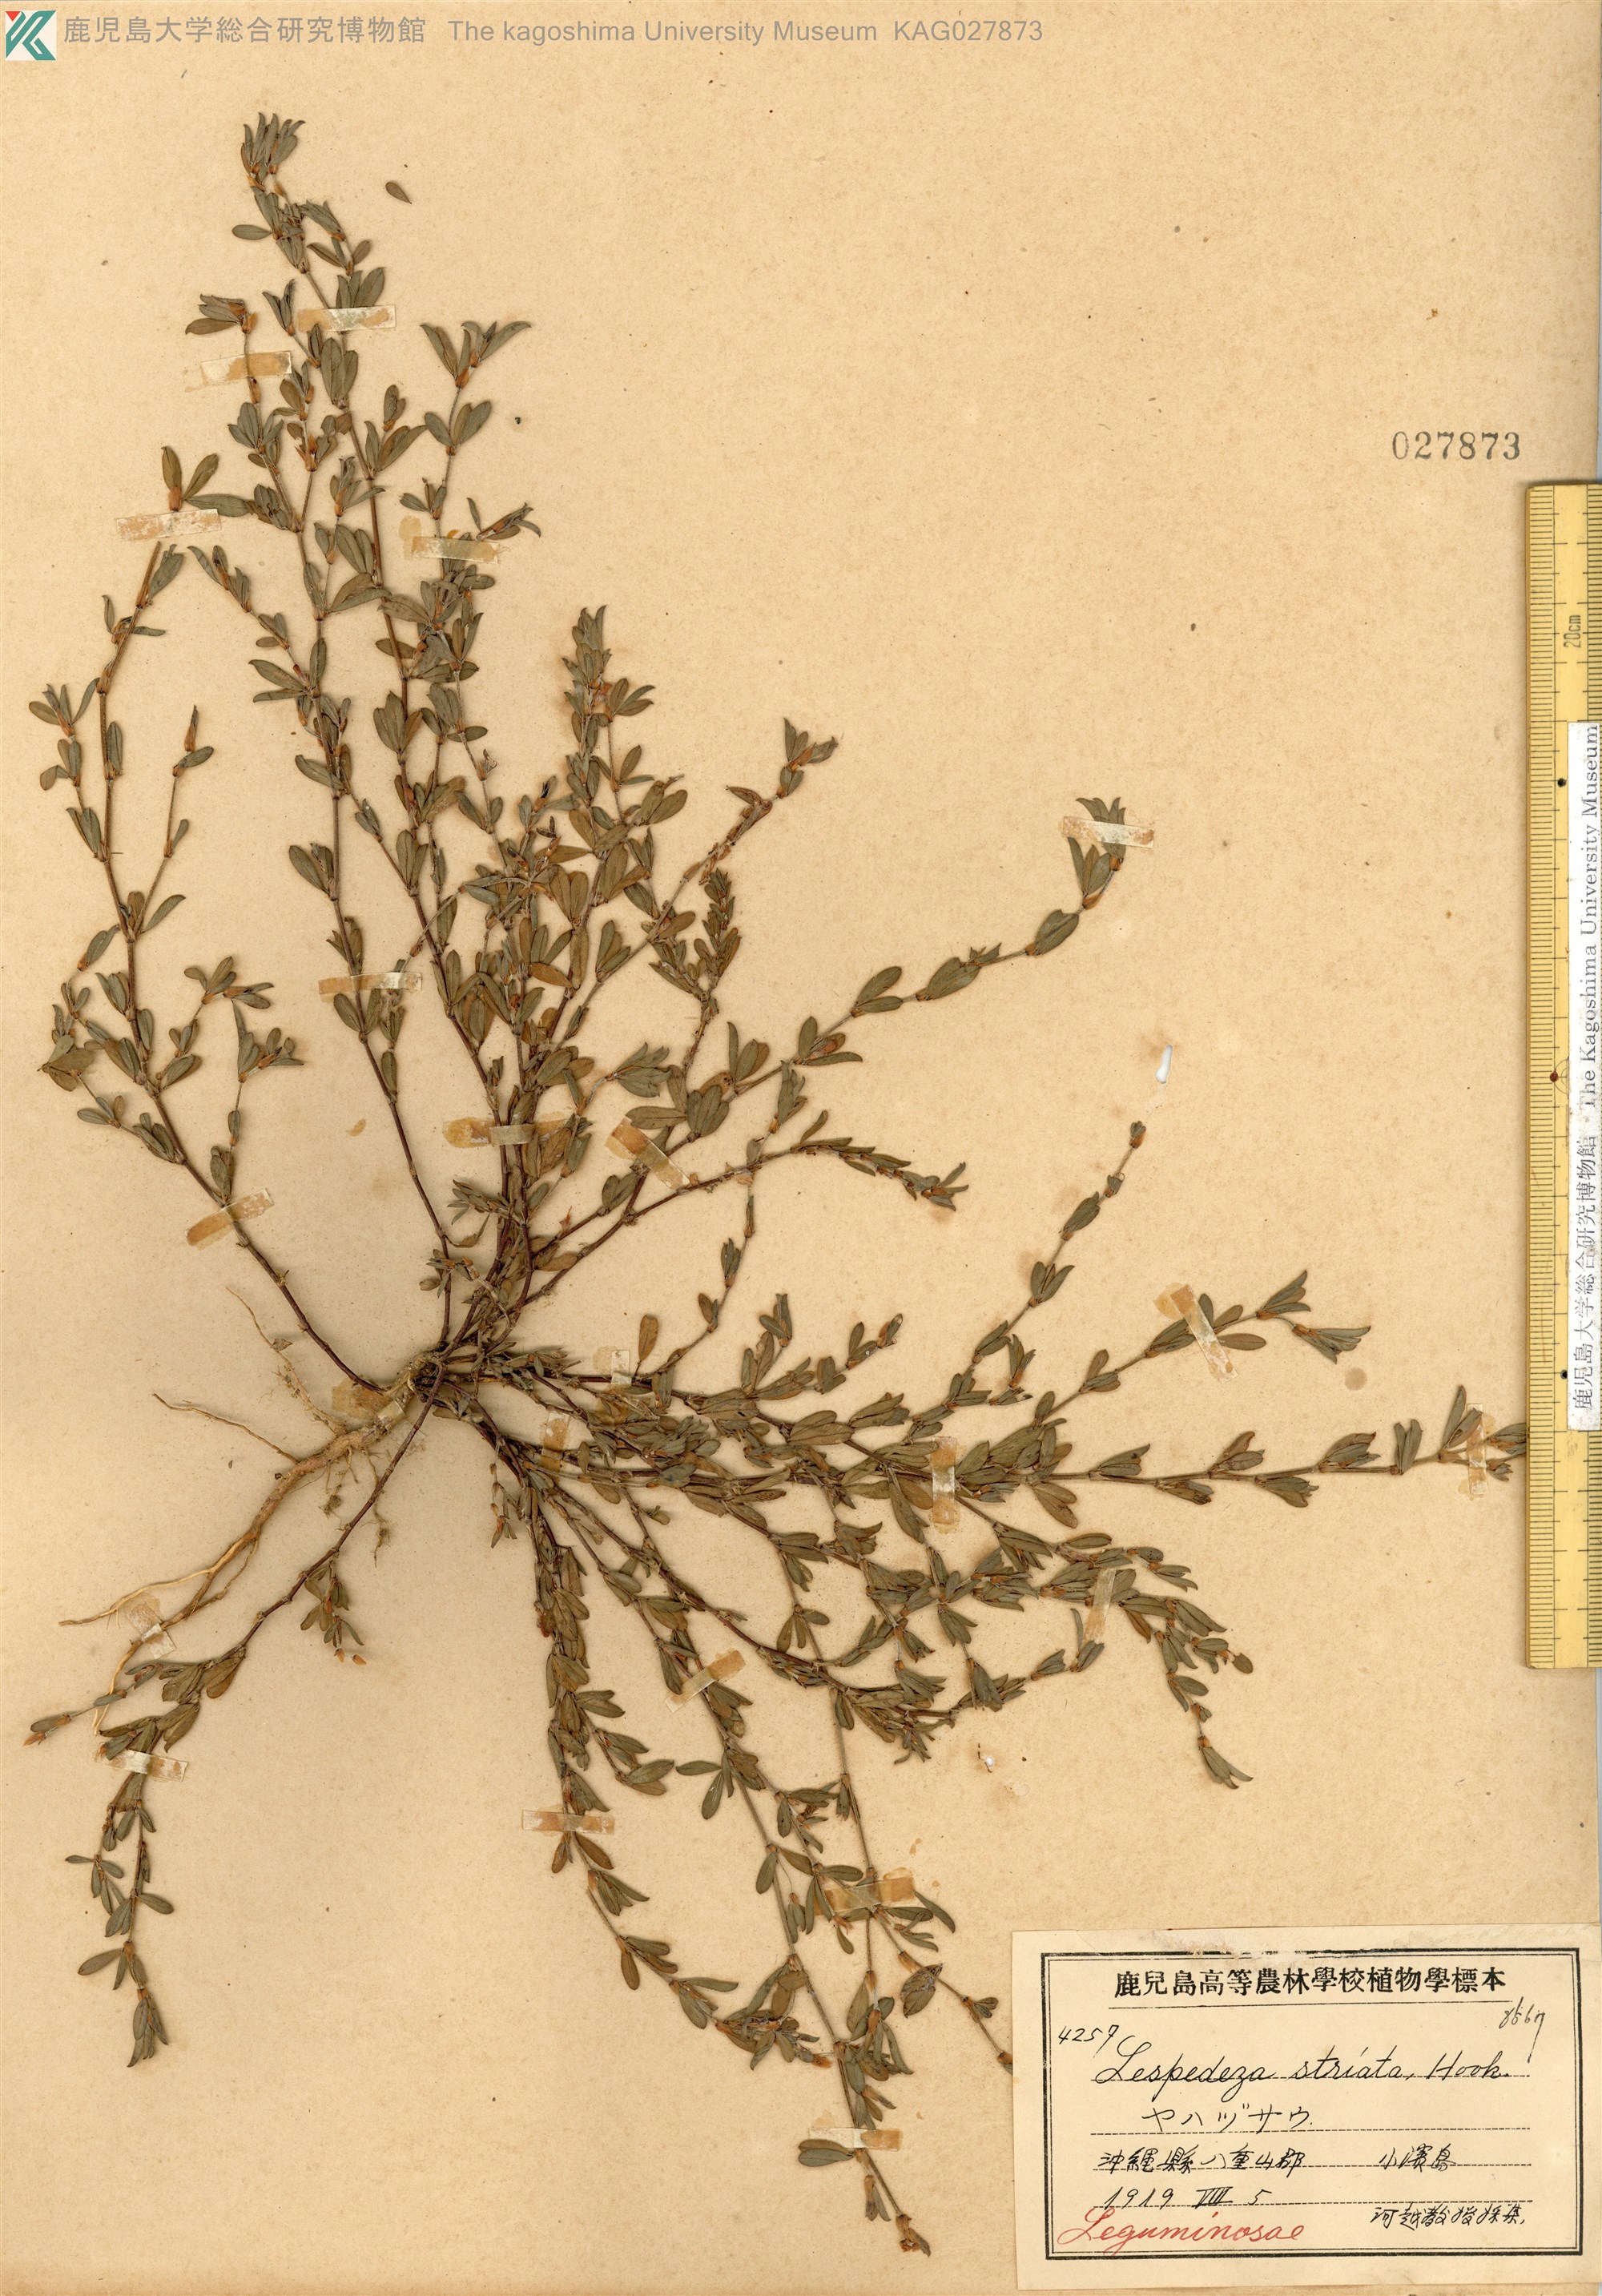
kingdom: Plantae
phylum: Tracheophyta
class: Magnoliopsida
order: Fabales
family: Fabaceae
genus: Kummerowia
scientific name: Kummerowia striata
